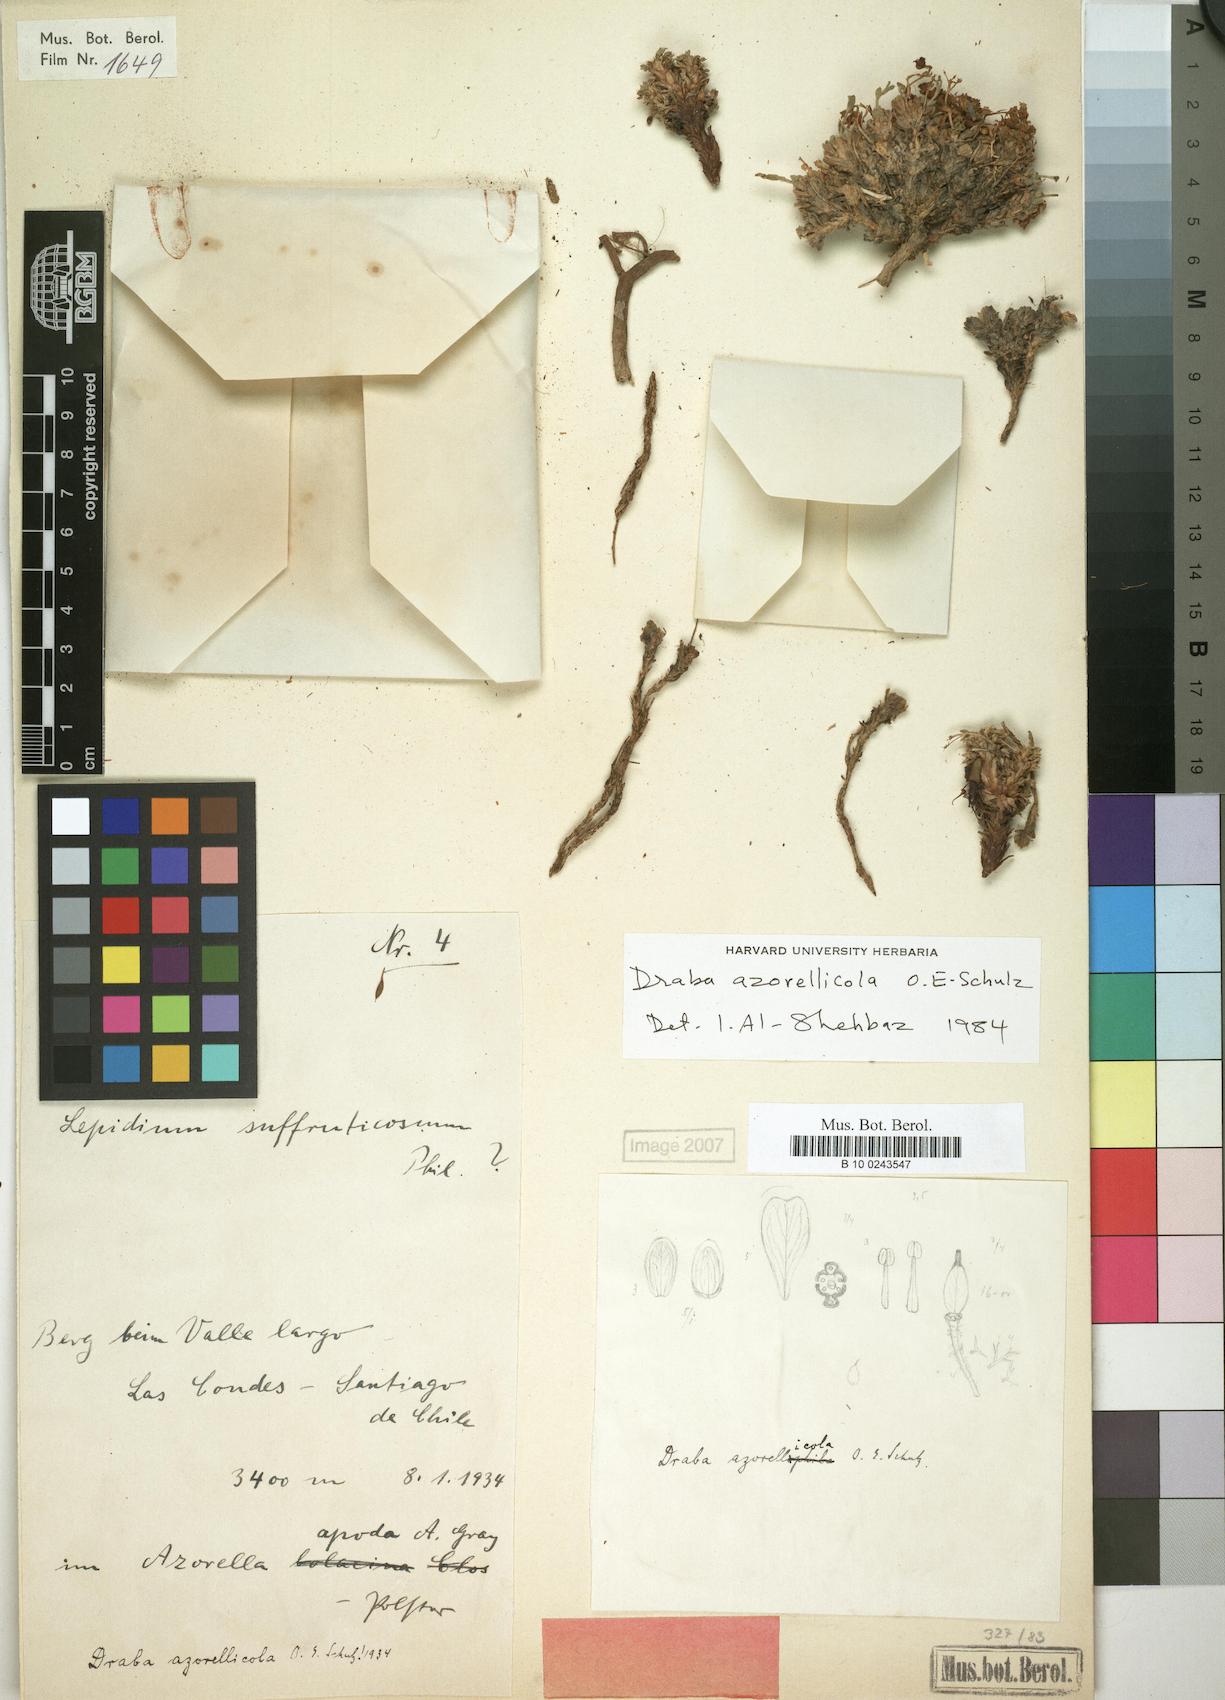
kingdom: Plantae
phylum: Tracheophyta
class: Magnoliopsida
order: Brassicales
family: Brassicaceae
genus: Draba
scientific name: Draba gilliesii
